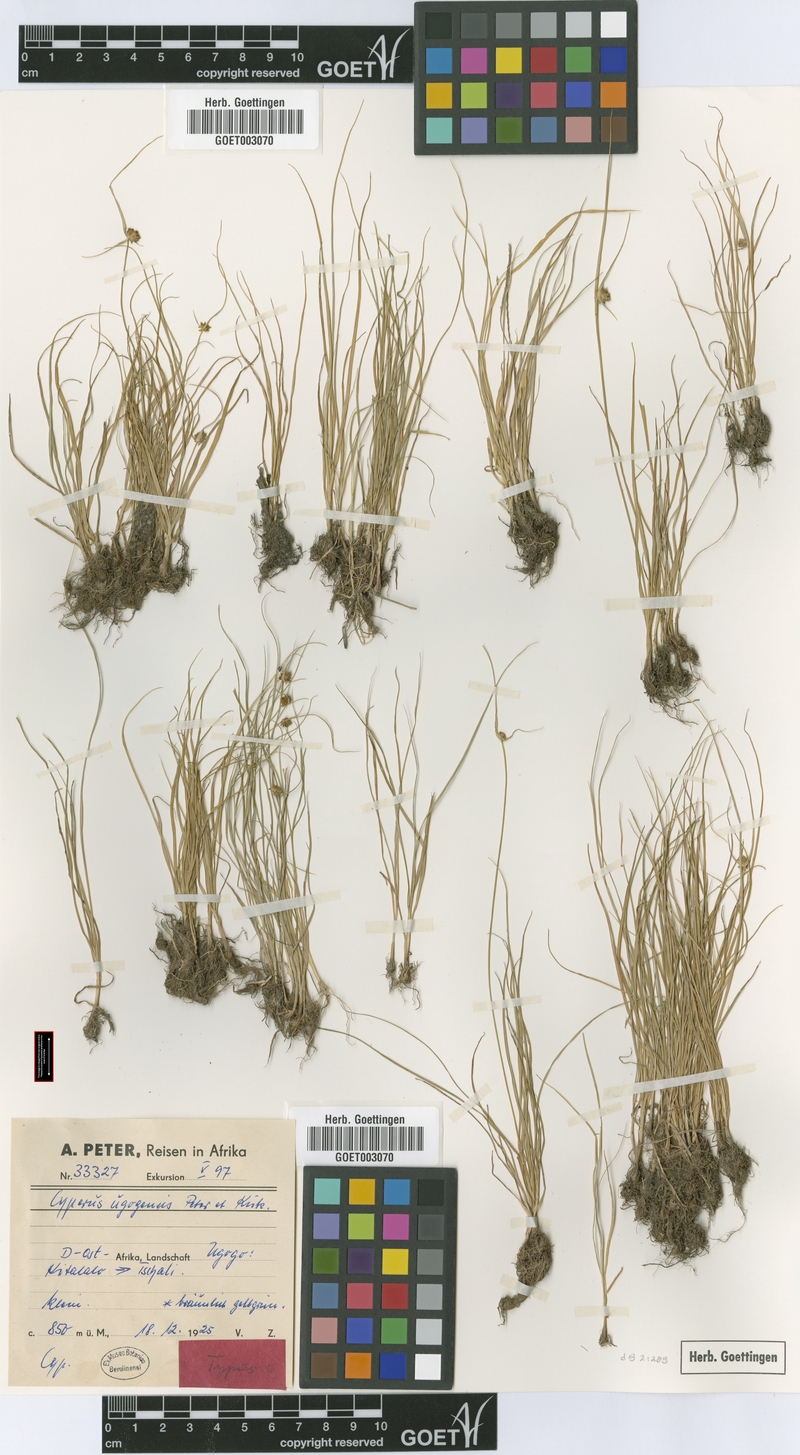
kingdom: Plantae
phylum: Tracheophyta
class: Liliopsida
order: Poales
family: Cyperaceae
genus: Cyperus
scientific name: Cyperus ugogensis
